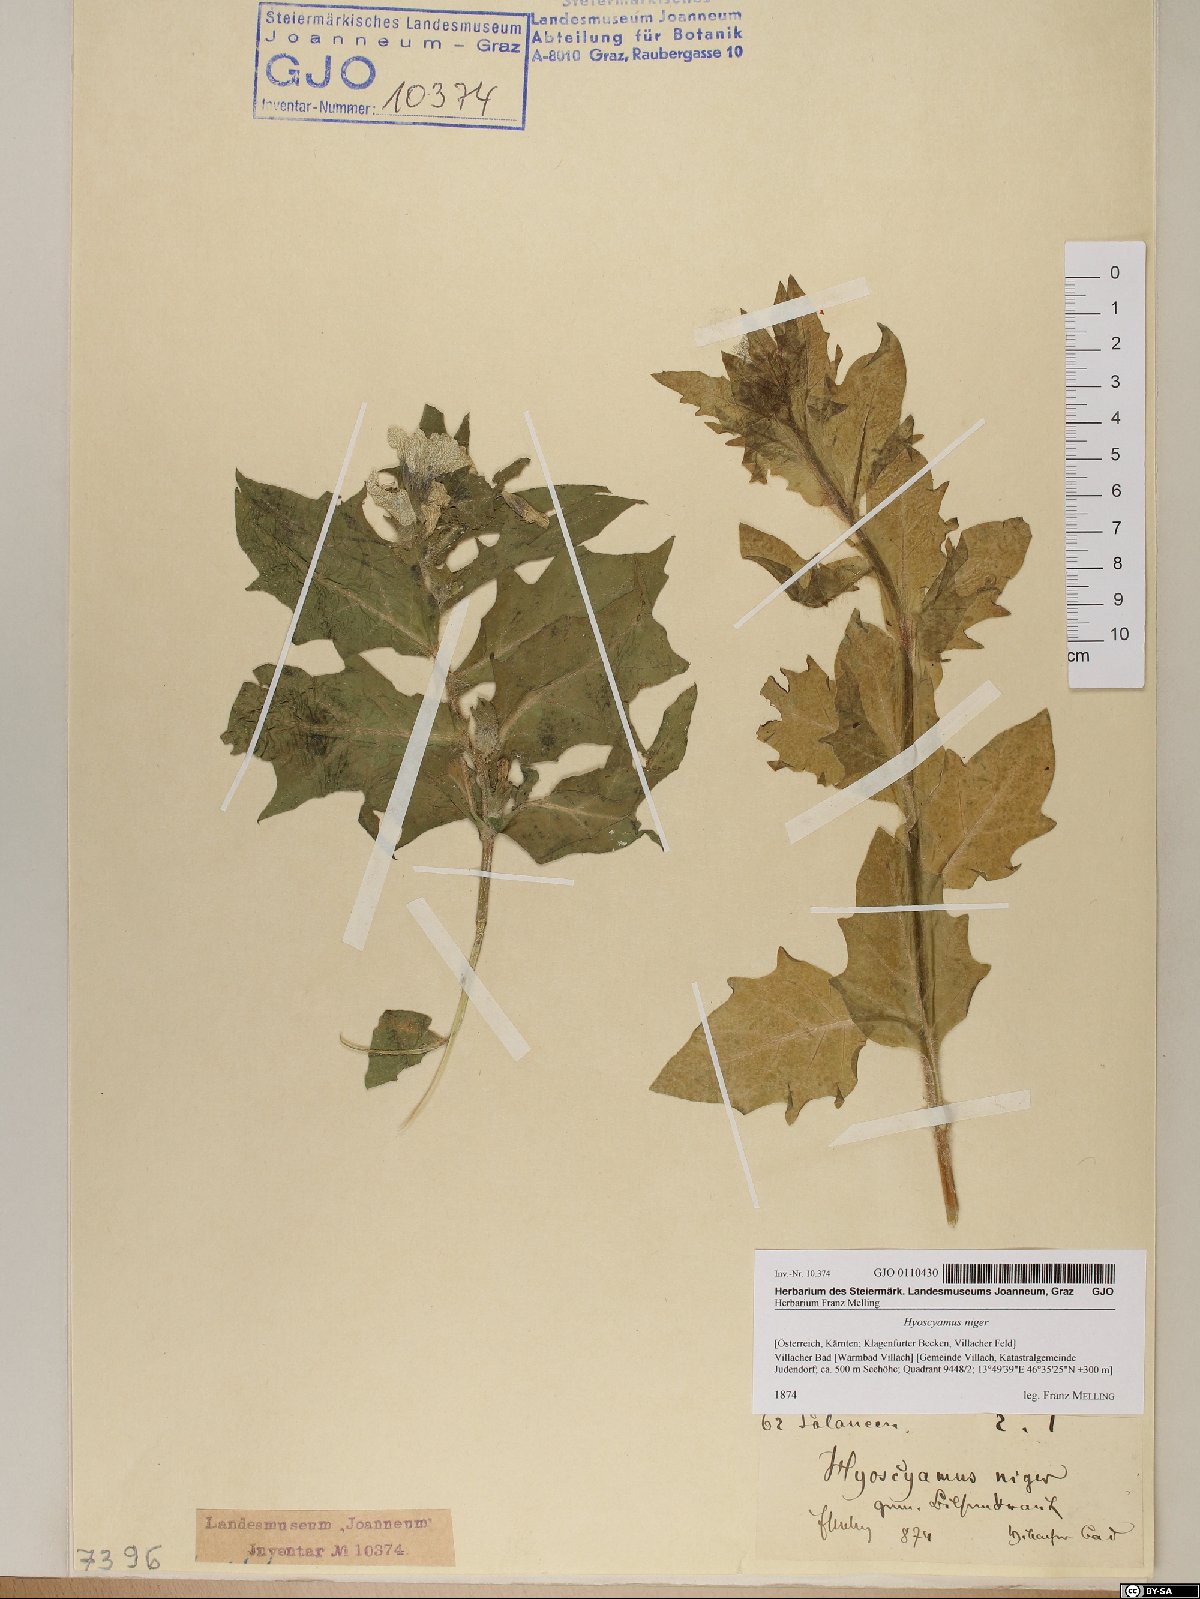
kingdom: Plantae
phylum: Tracheophyta
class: Magnoliopsida
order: Solanales
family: Solanaceae
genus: Hyoscyamus
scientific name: Hyoscyamus niger
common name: Henbane
